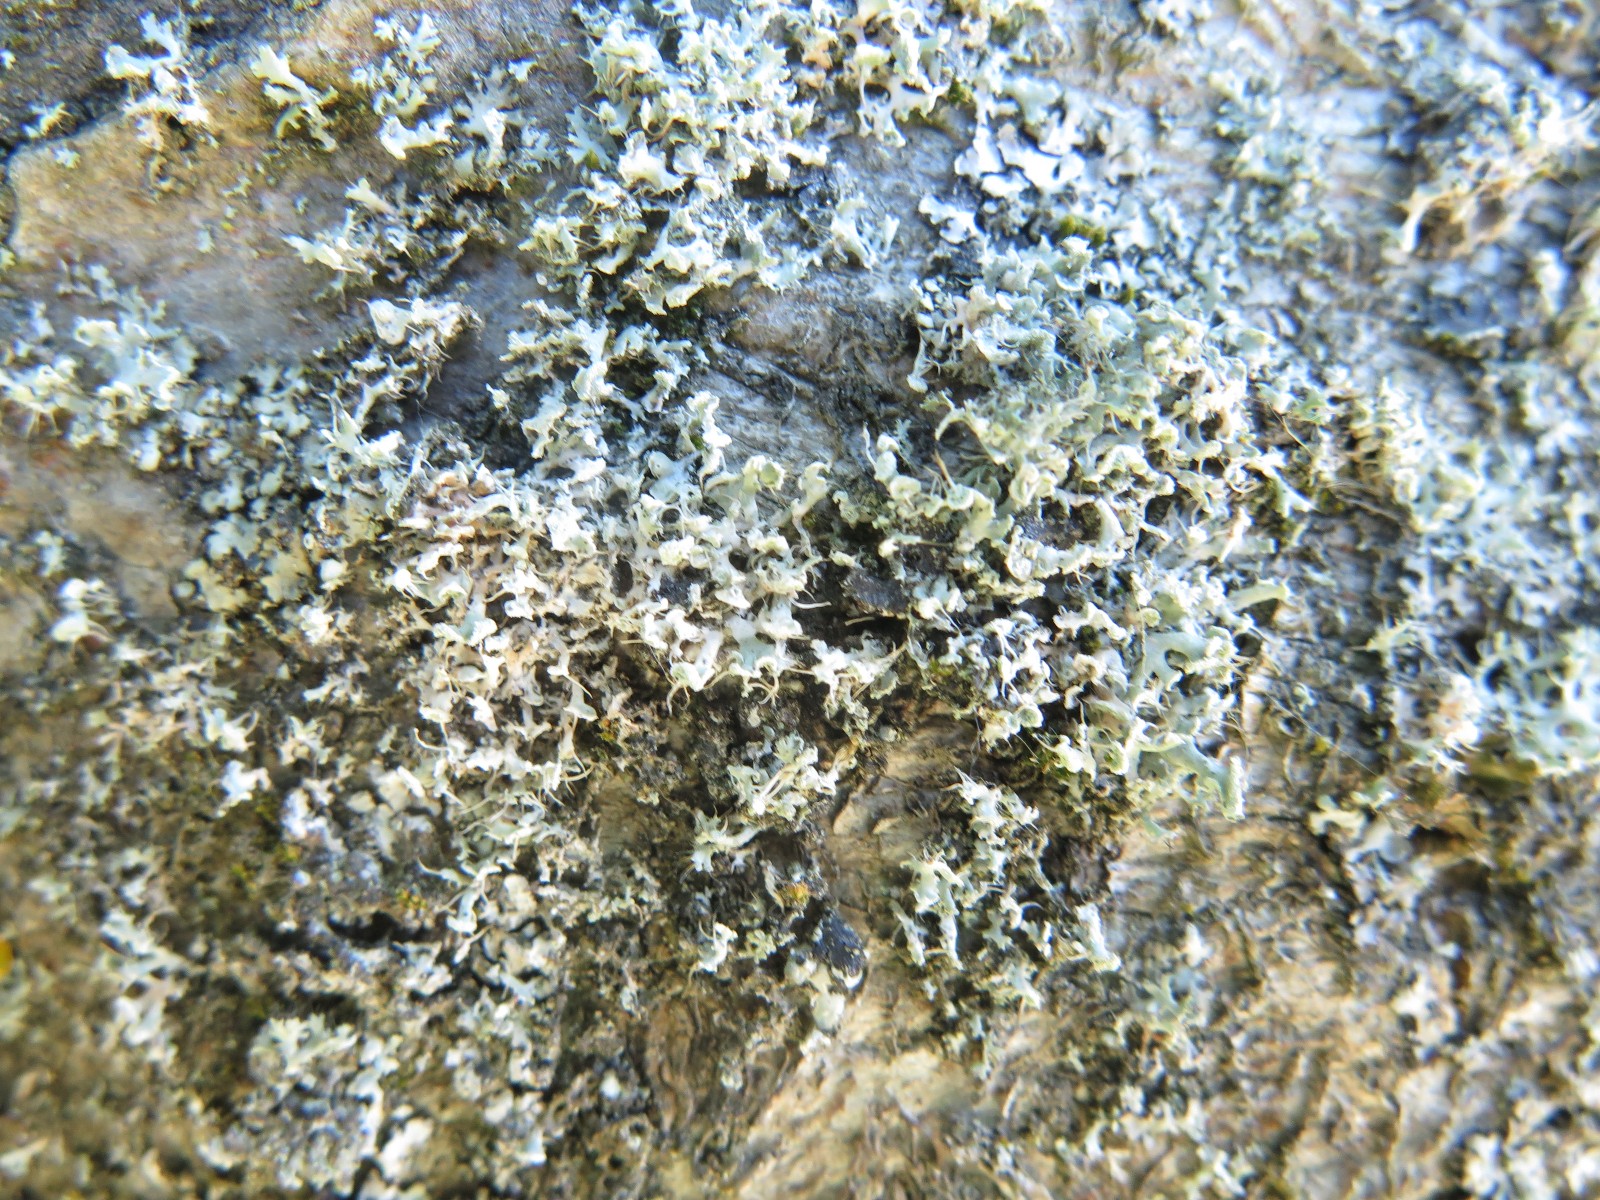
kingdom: Fungi
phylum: Ascomycota
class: Lecanoromycetes
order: Caliciales
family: Physciaceae
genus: Physcia
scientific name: Physcia tenella
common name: spæd rosetlav
